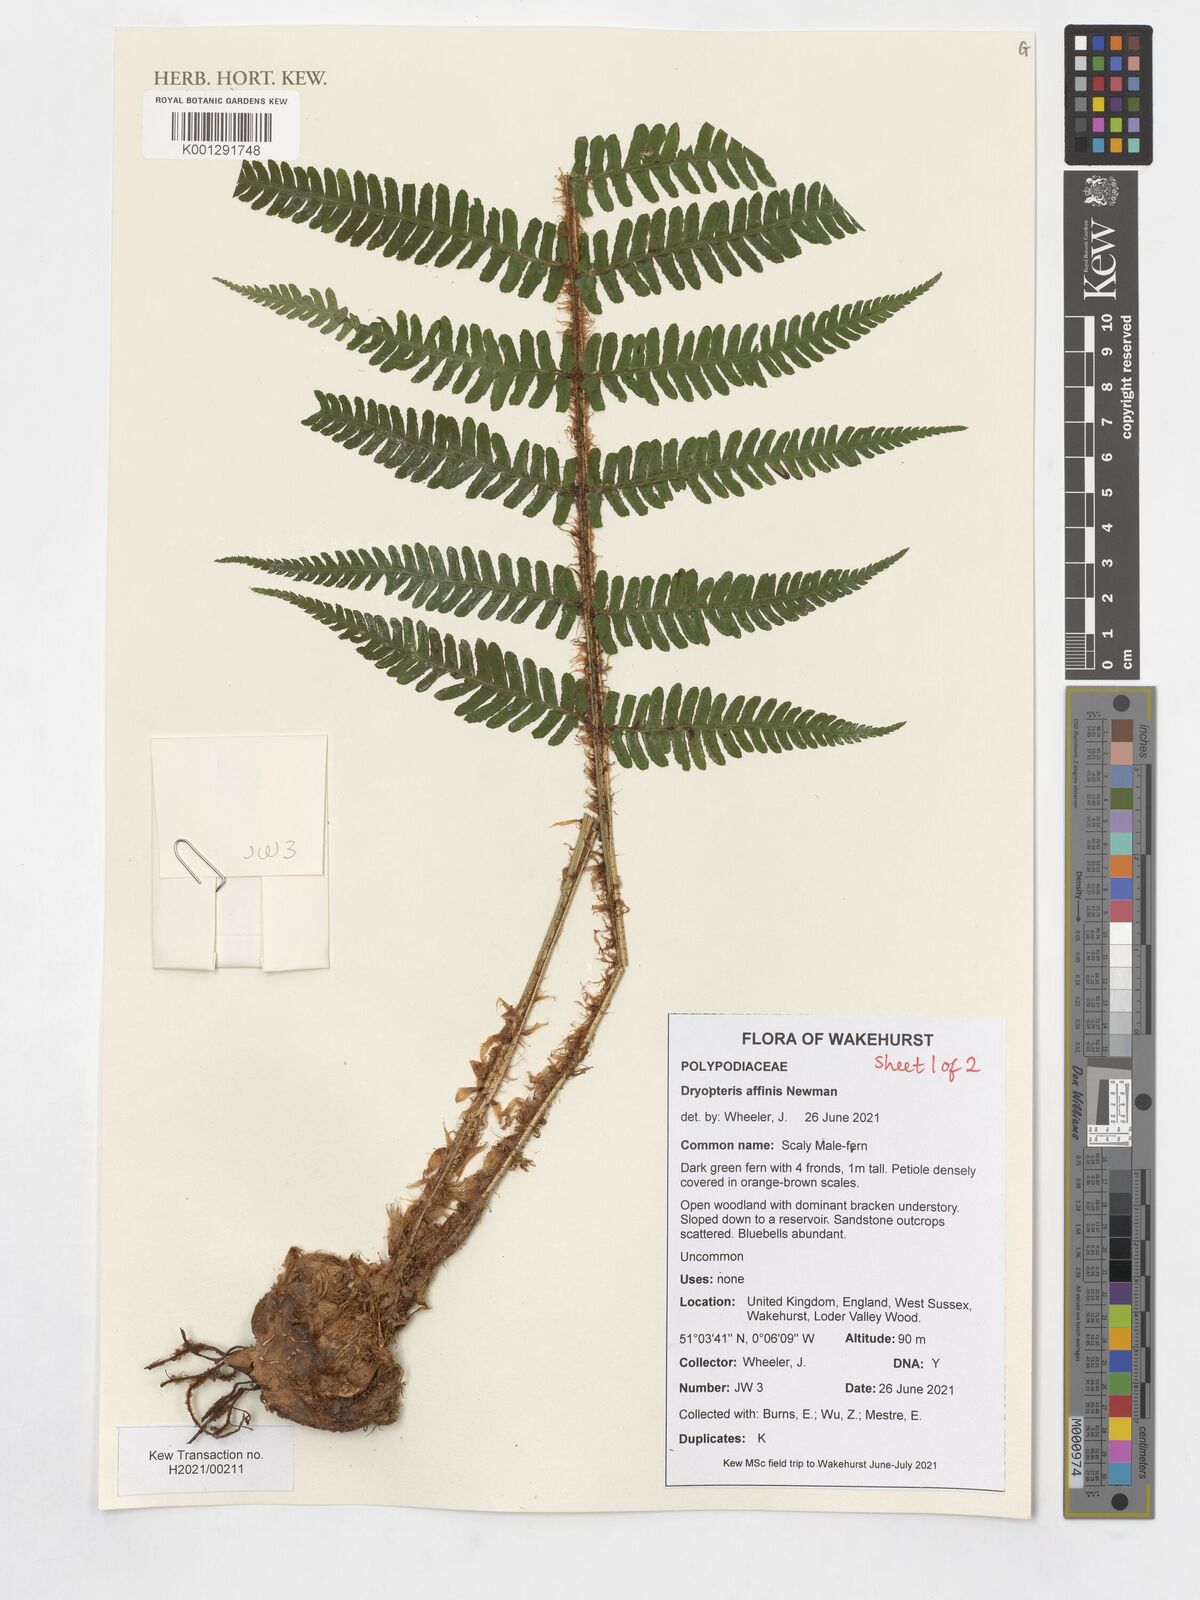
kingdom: Plantae
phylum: Tracheophyta
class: Polypodiopsida
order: Polypodiales
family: Dryopteridaceae
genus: Dryopteris
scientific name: Dryopteris caucasica
